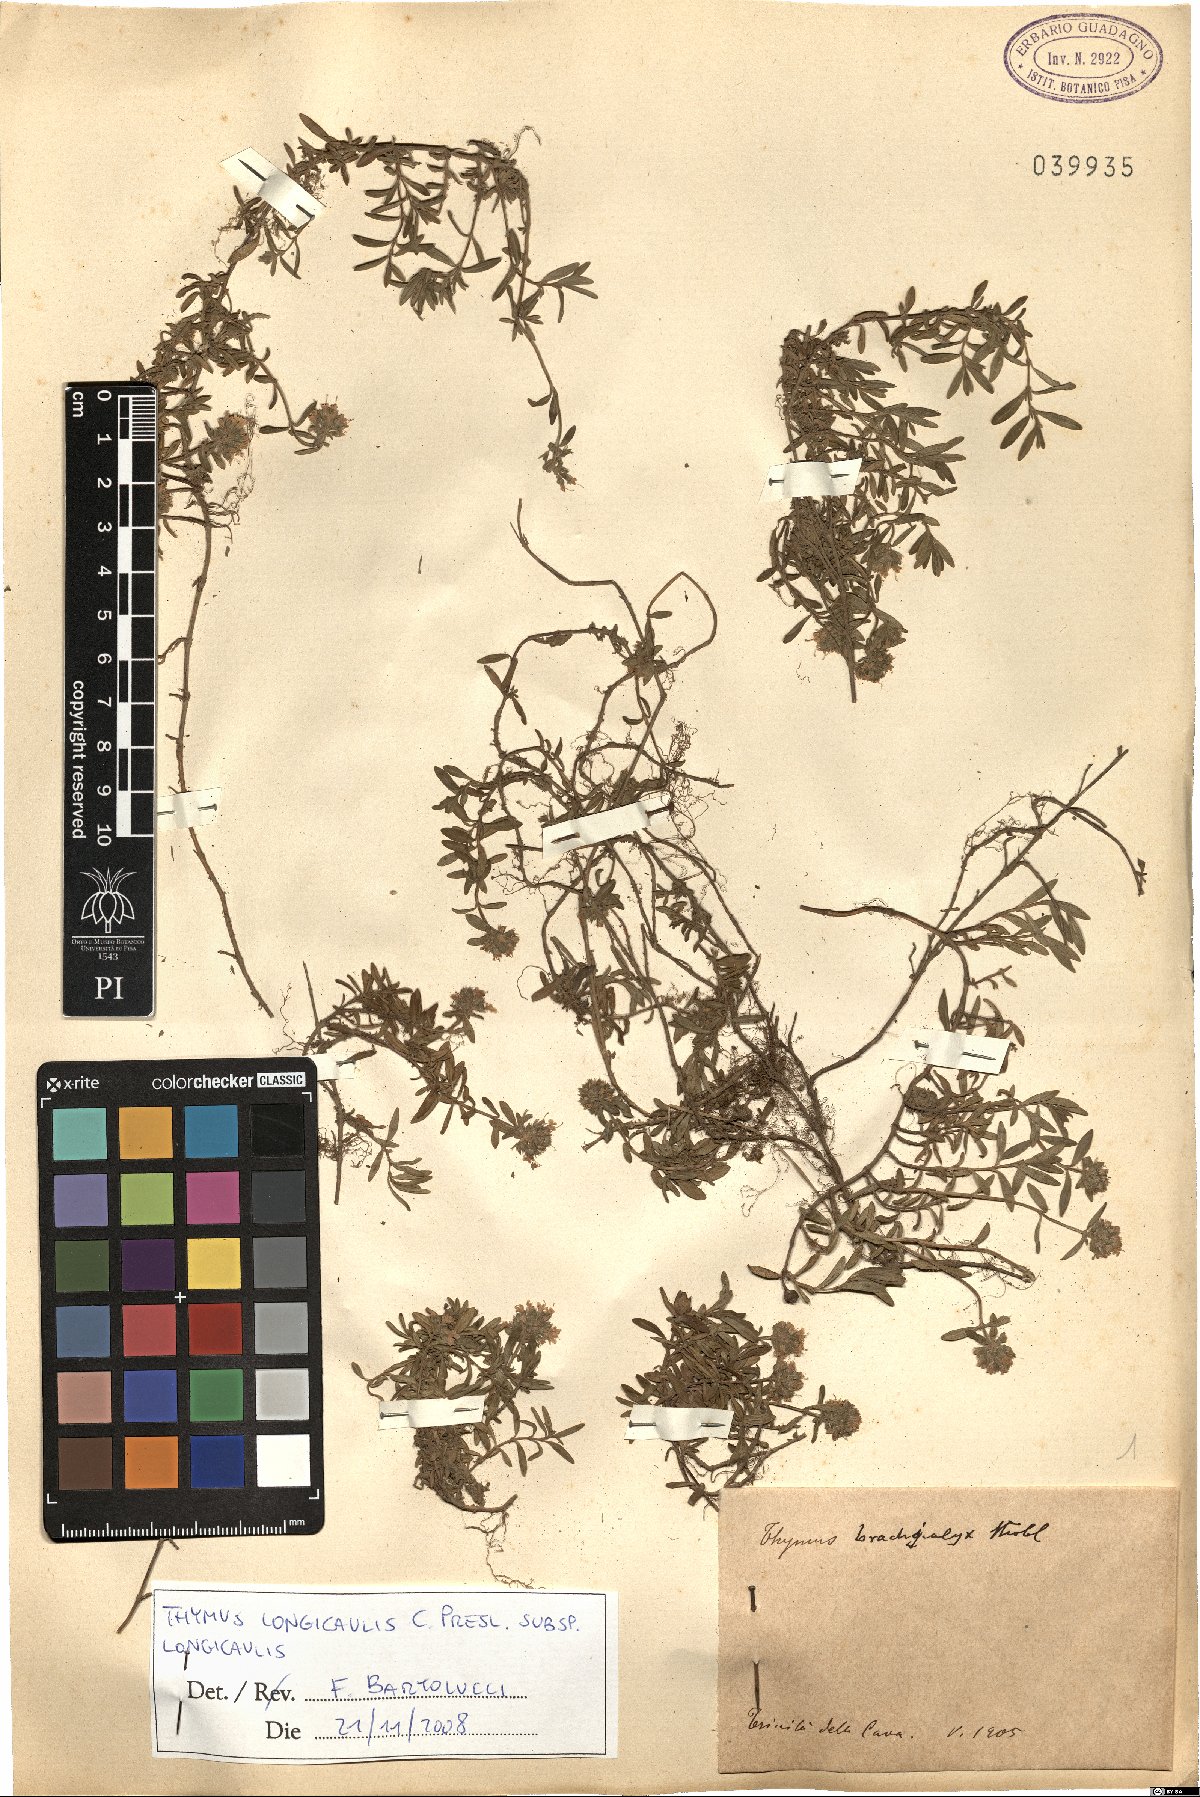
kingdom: Plantae
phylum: Tracheophyta
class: Magnoliopsida
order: Lamiales
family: Lamiaceae
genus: Thymus
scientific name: Thymus longicaulis
